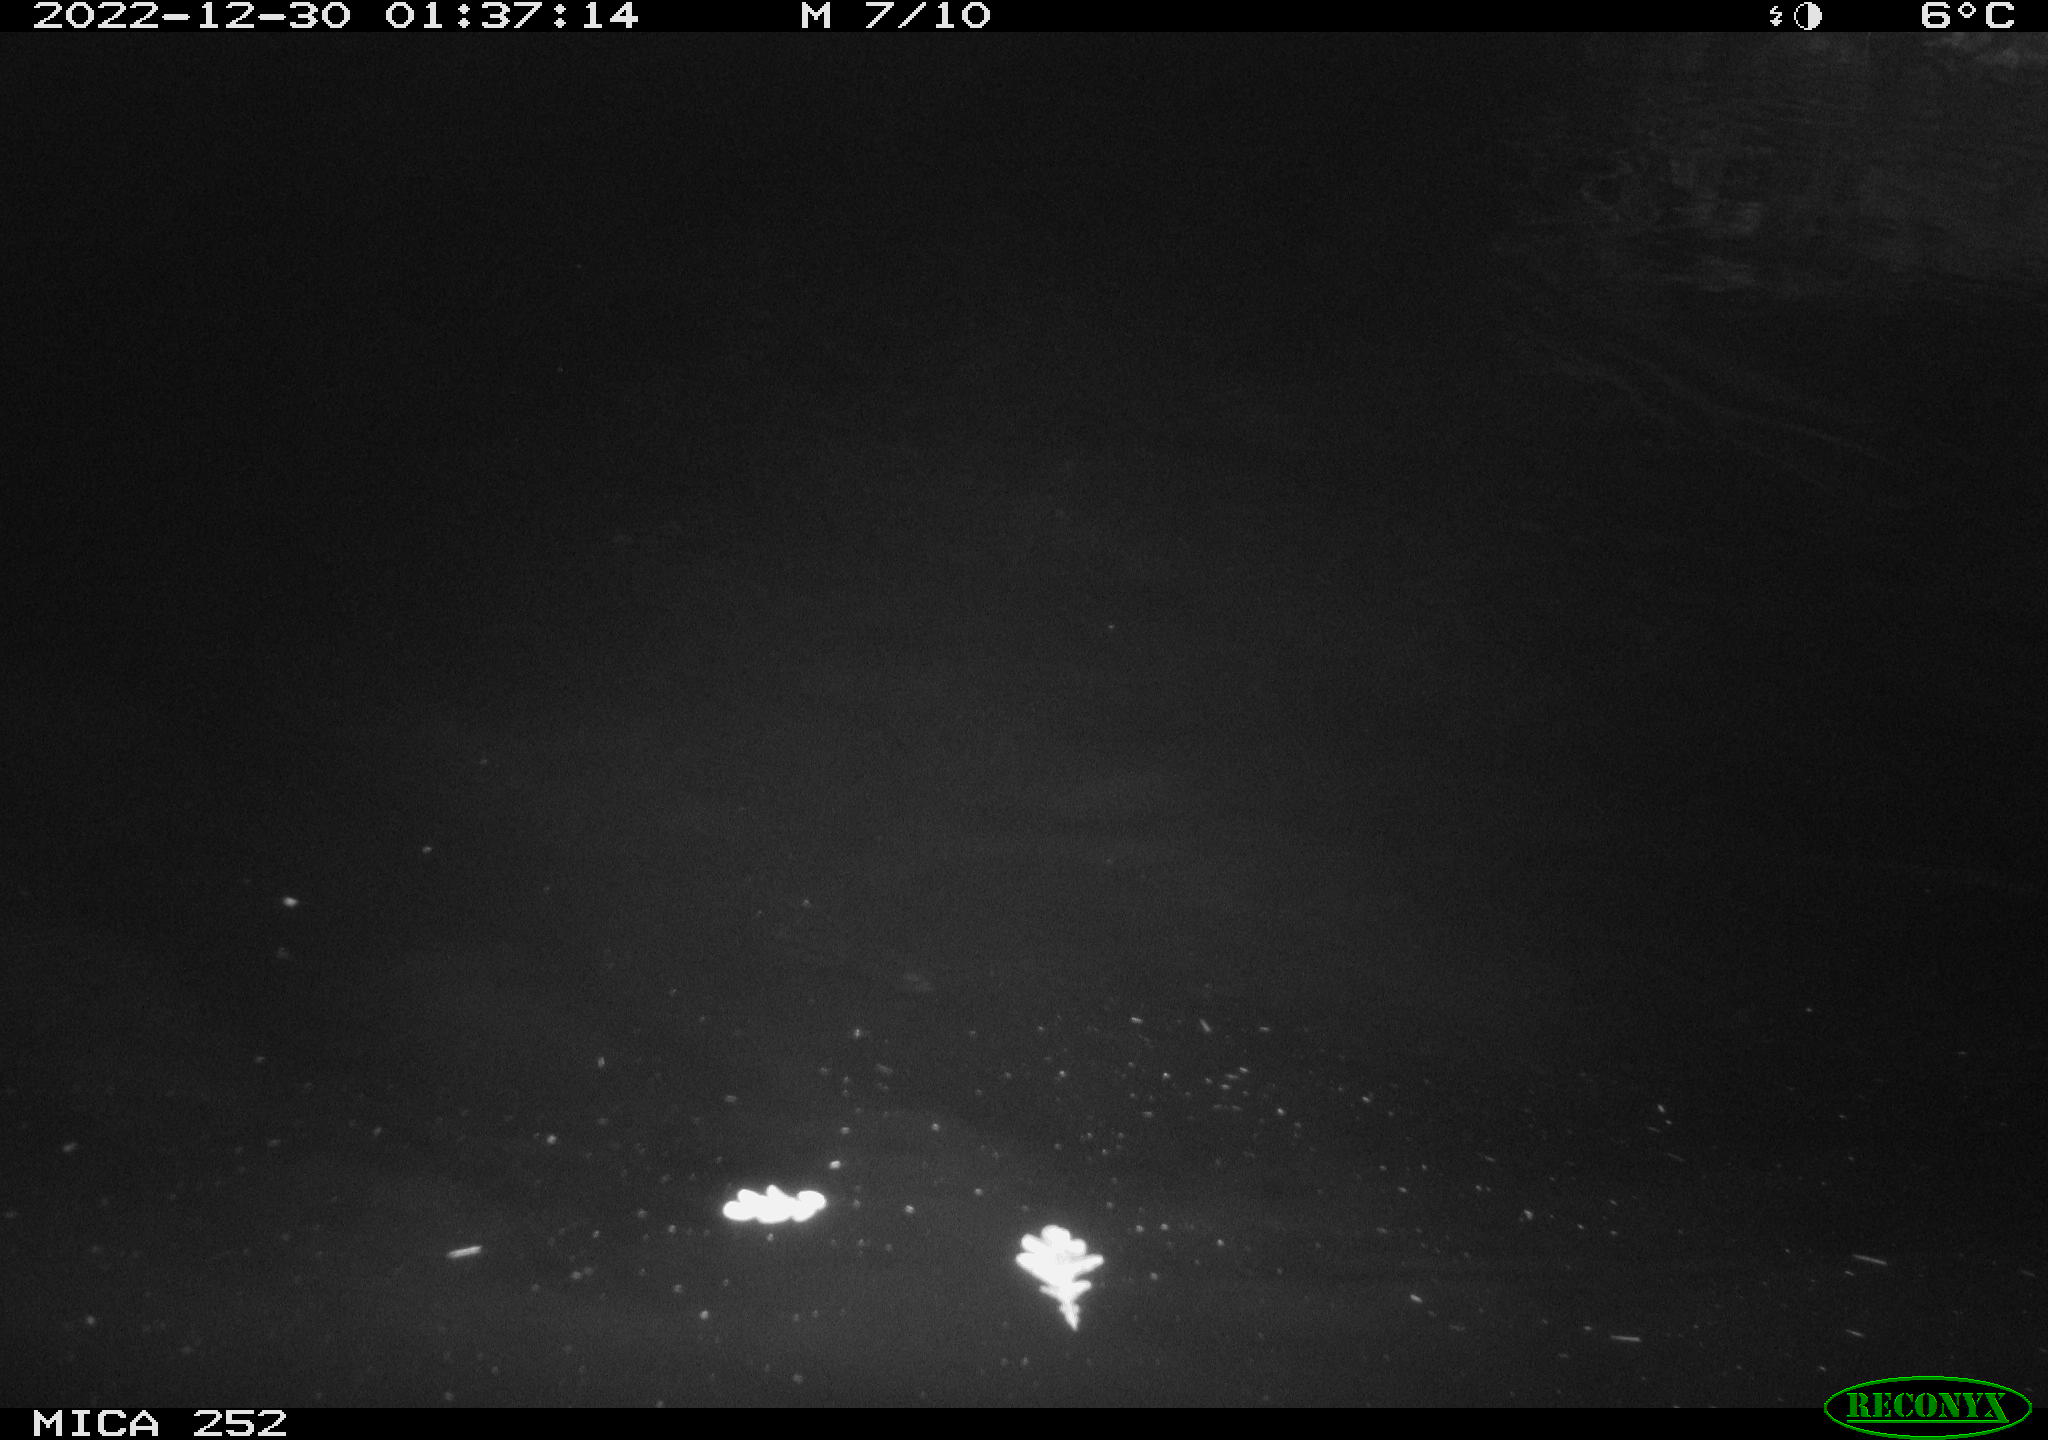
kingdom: Animalia
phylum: Chordata
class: Mammalia
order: Rodentia
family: Castoridae
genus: Castor
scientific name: Castor fiber
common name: Eurasian beaver
